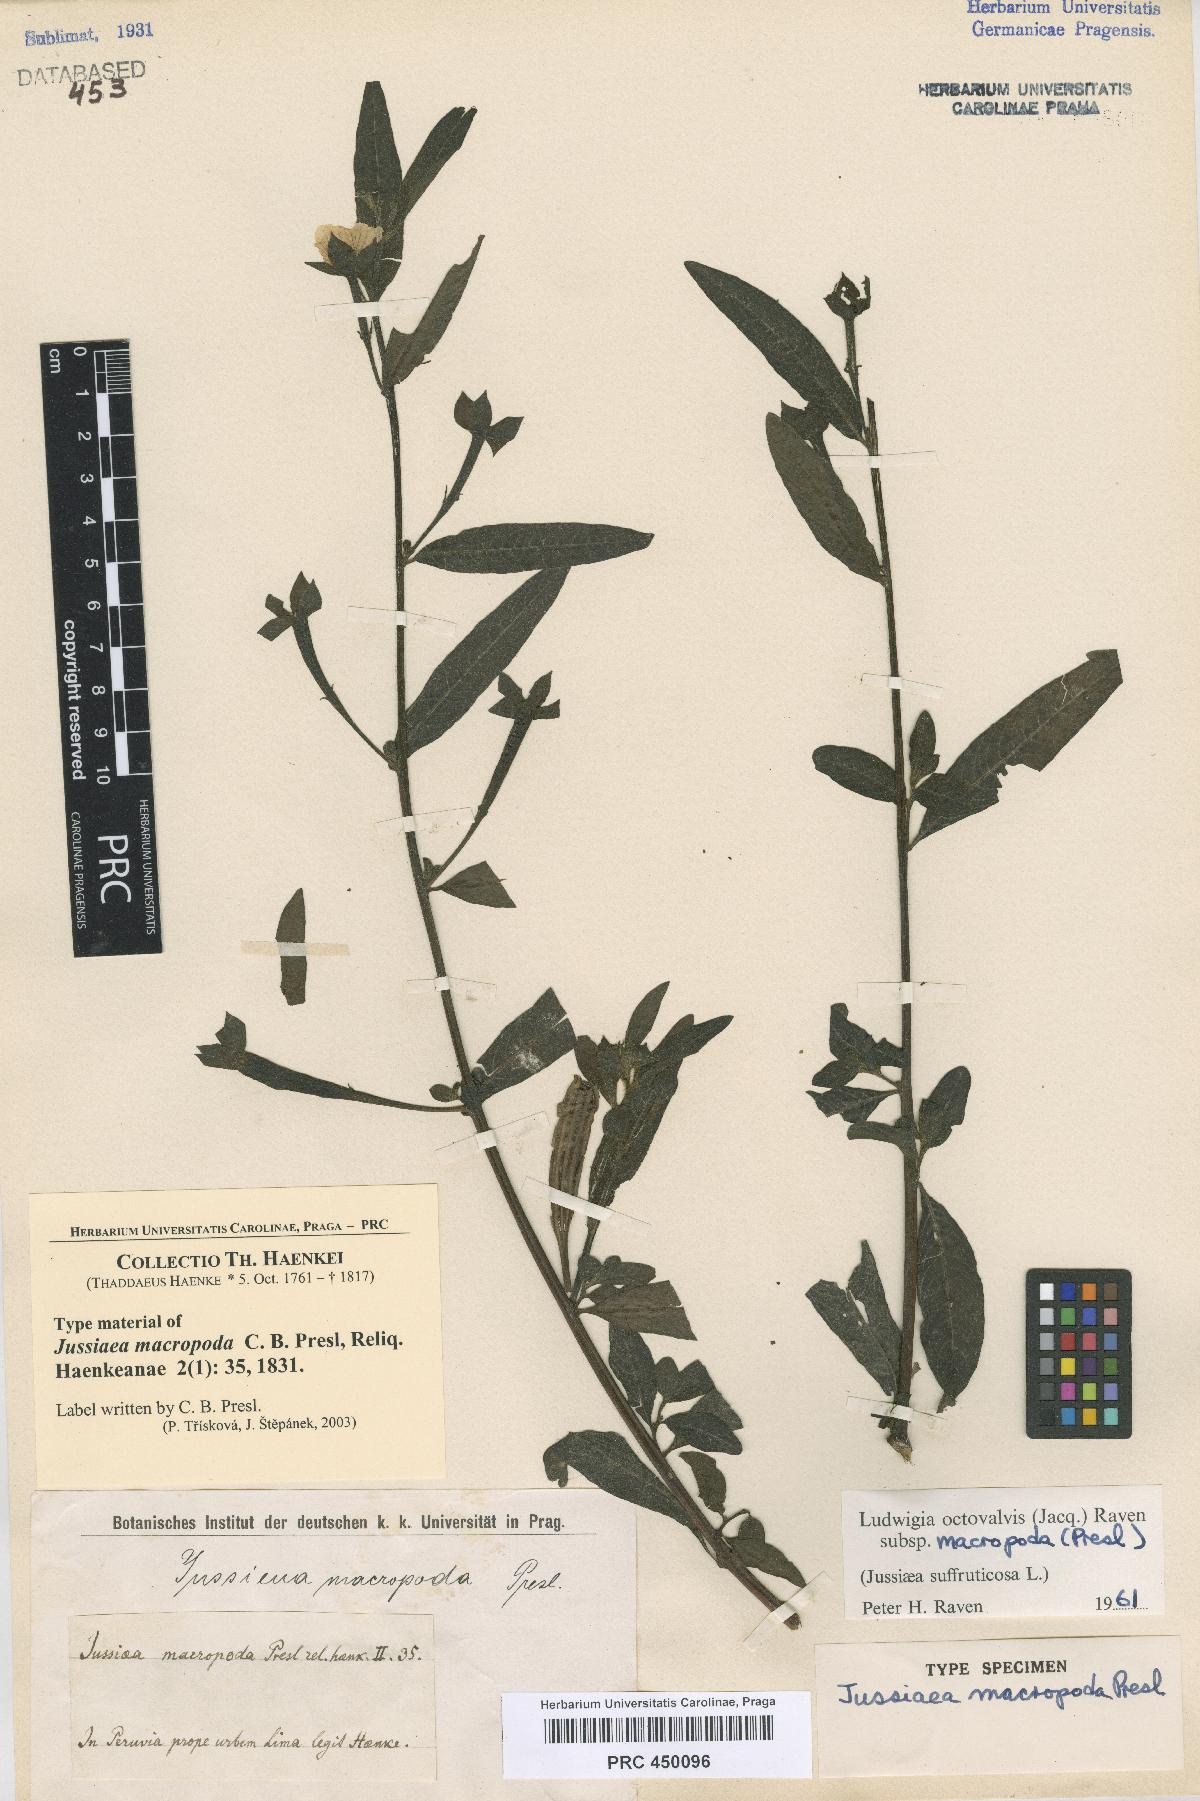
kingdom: Plantae
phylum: Tracheophyta
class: Magnoliopsida
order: Myrtales
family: Onagraceae
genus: Ludwigia
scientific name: Ludwigia octovalvis
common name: Water-primrose
